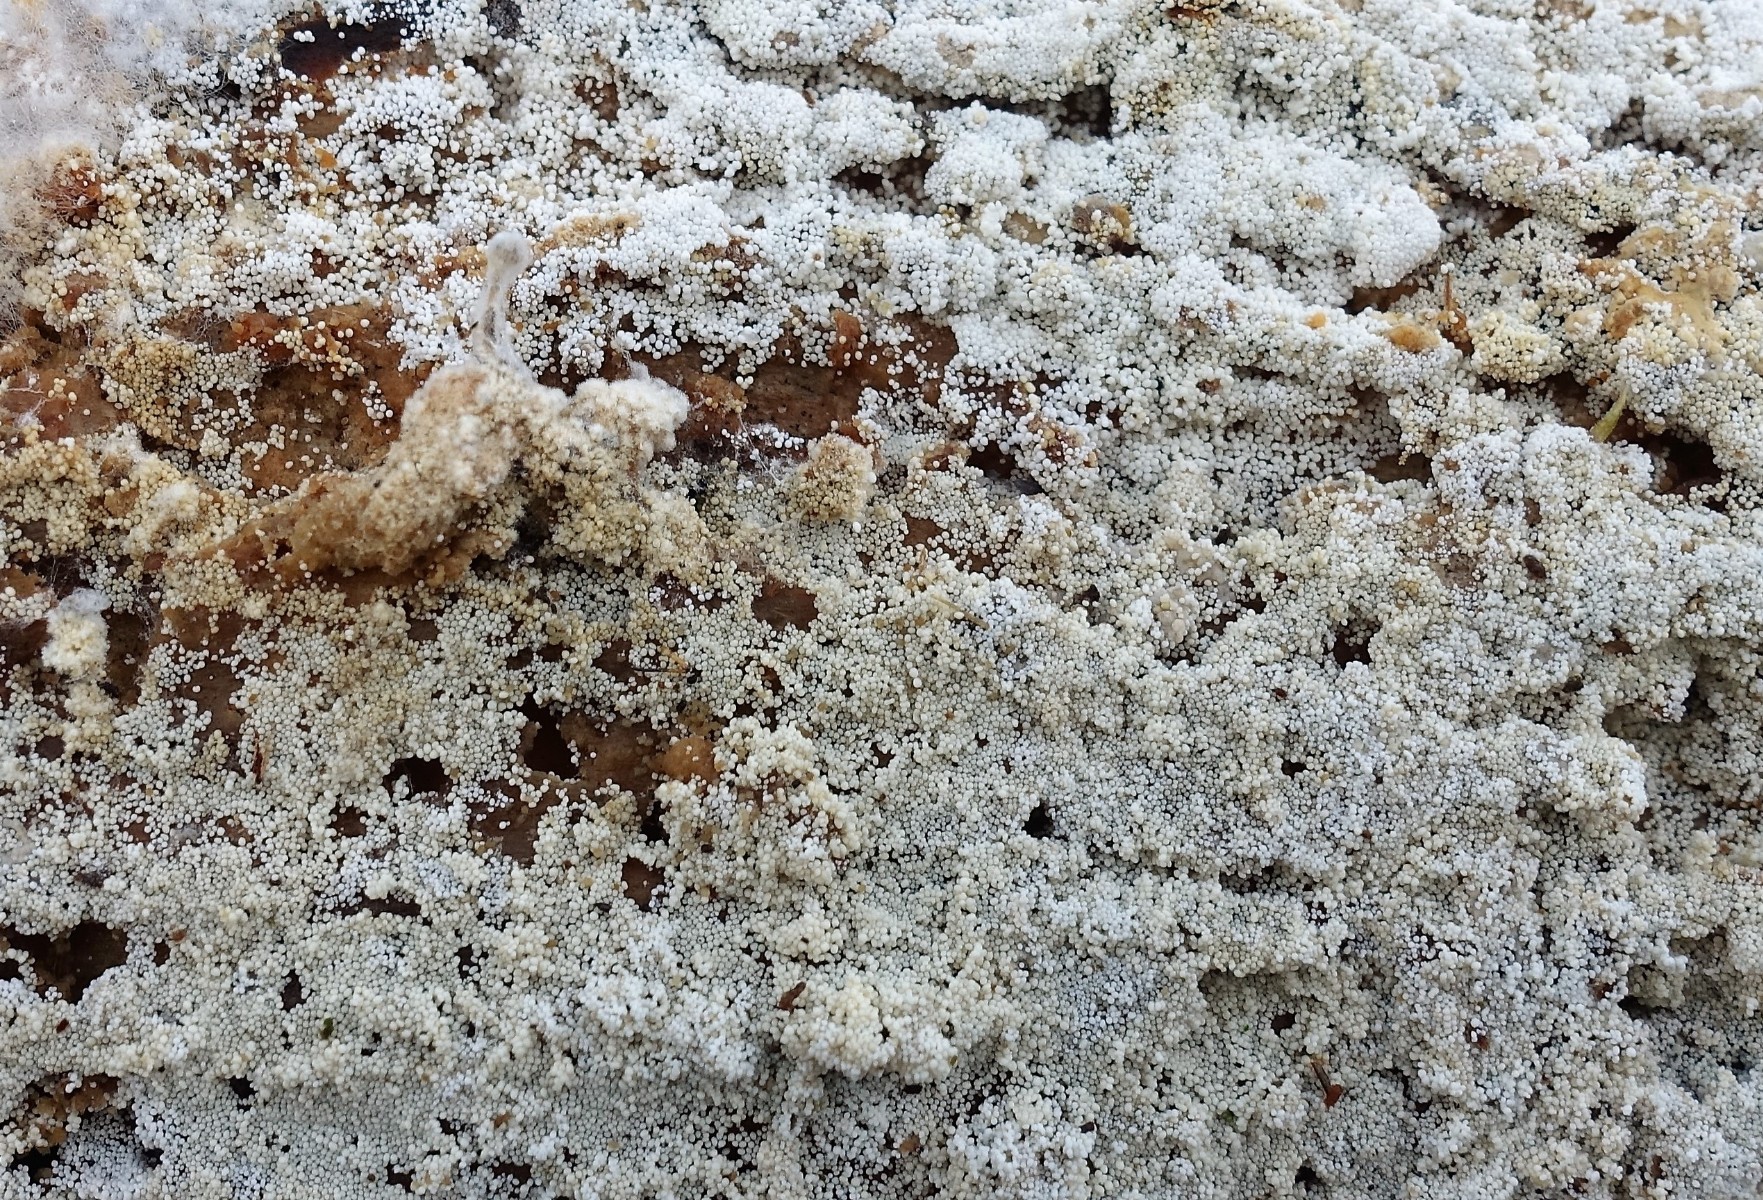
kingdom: Fungi
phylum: Basidiomycota
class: Agaricomycetes
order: Polyporales
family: Meruliaceae
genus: Bulbillomyces
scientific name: Bulbillomyces farinosus
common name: æg-kalkskind
